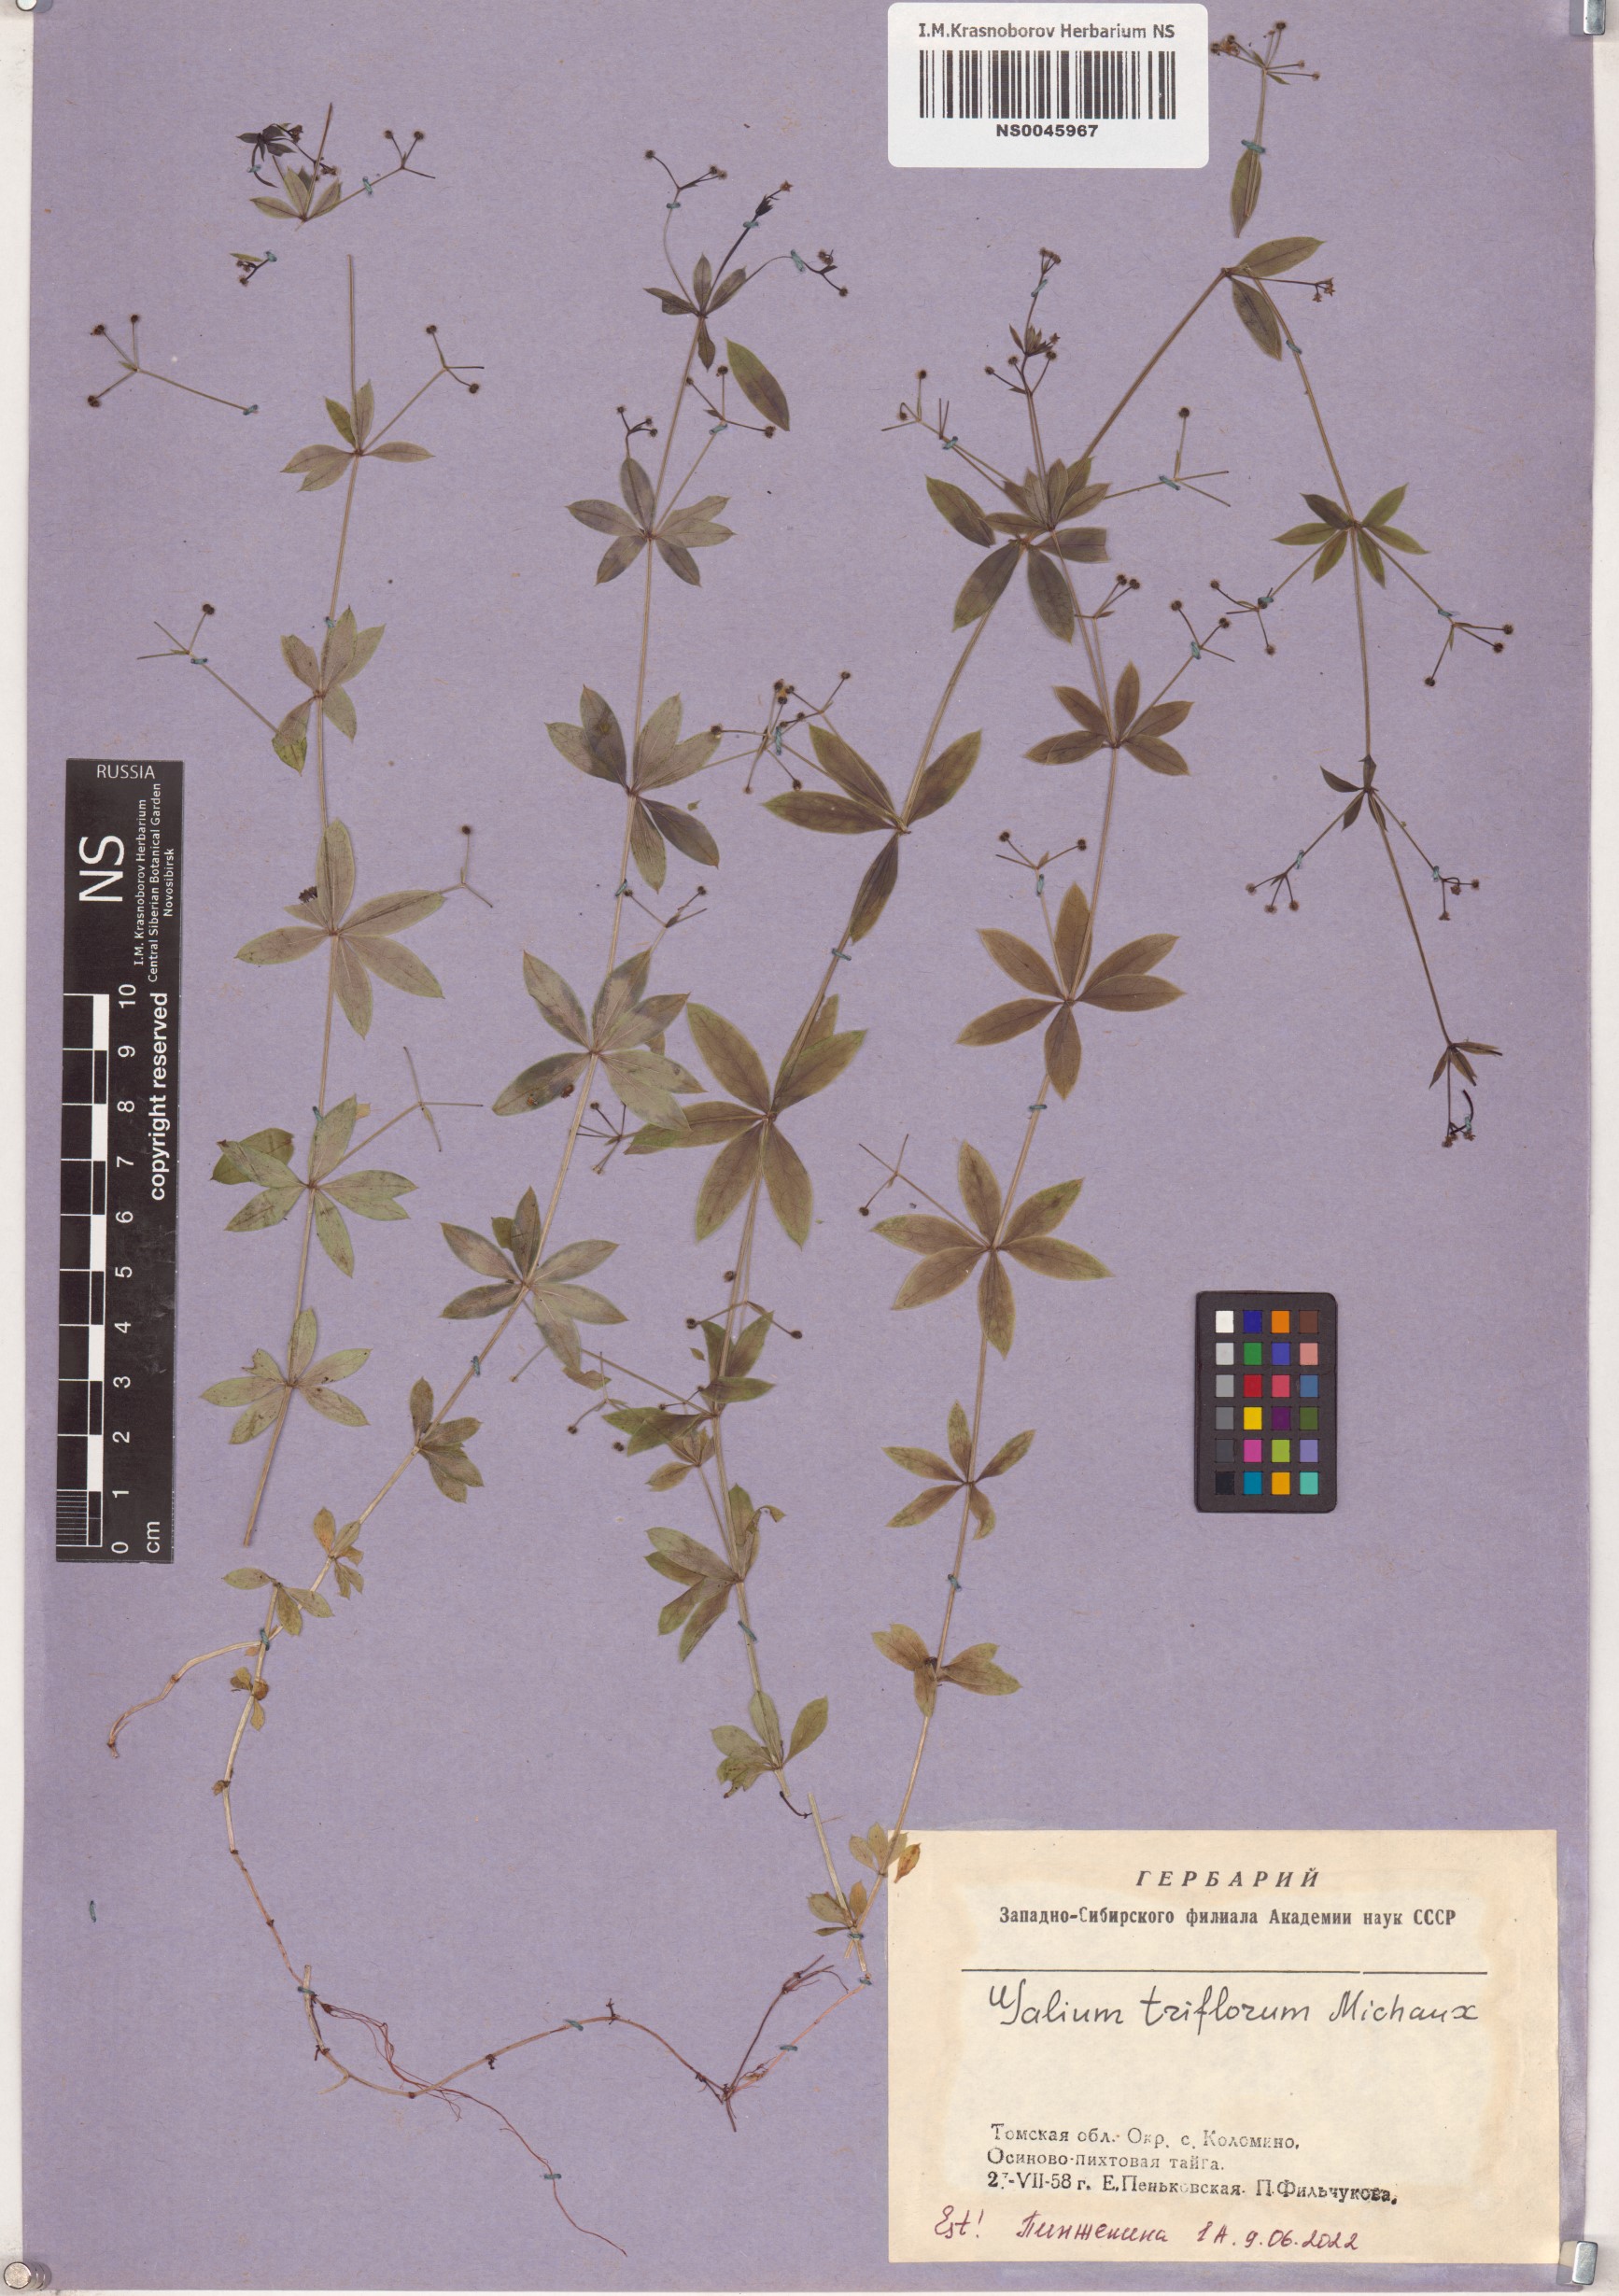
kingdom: Plantae
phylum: Tracheophyta
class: Magnoliopsida
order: Gentianales
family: Rubiaceae
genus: Galium
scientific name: Galium triflorum
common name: Fragrant bedstraw
